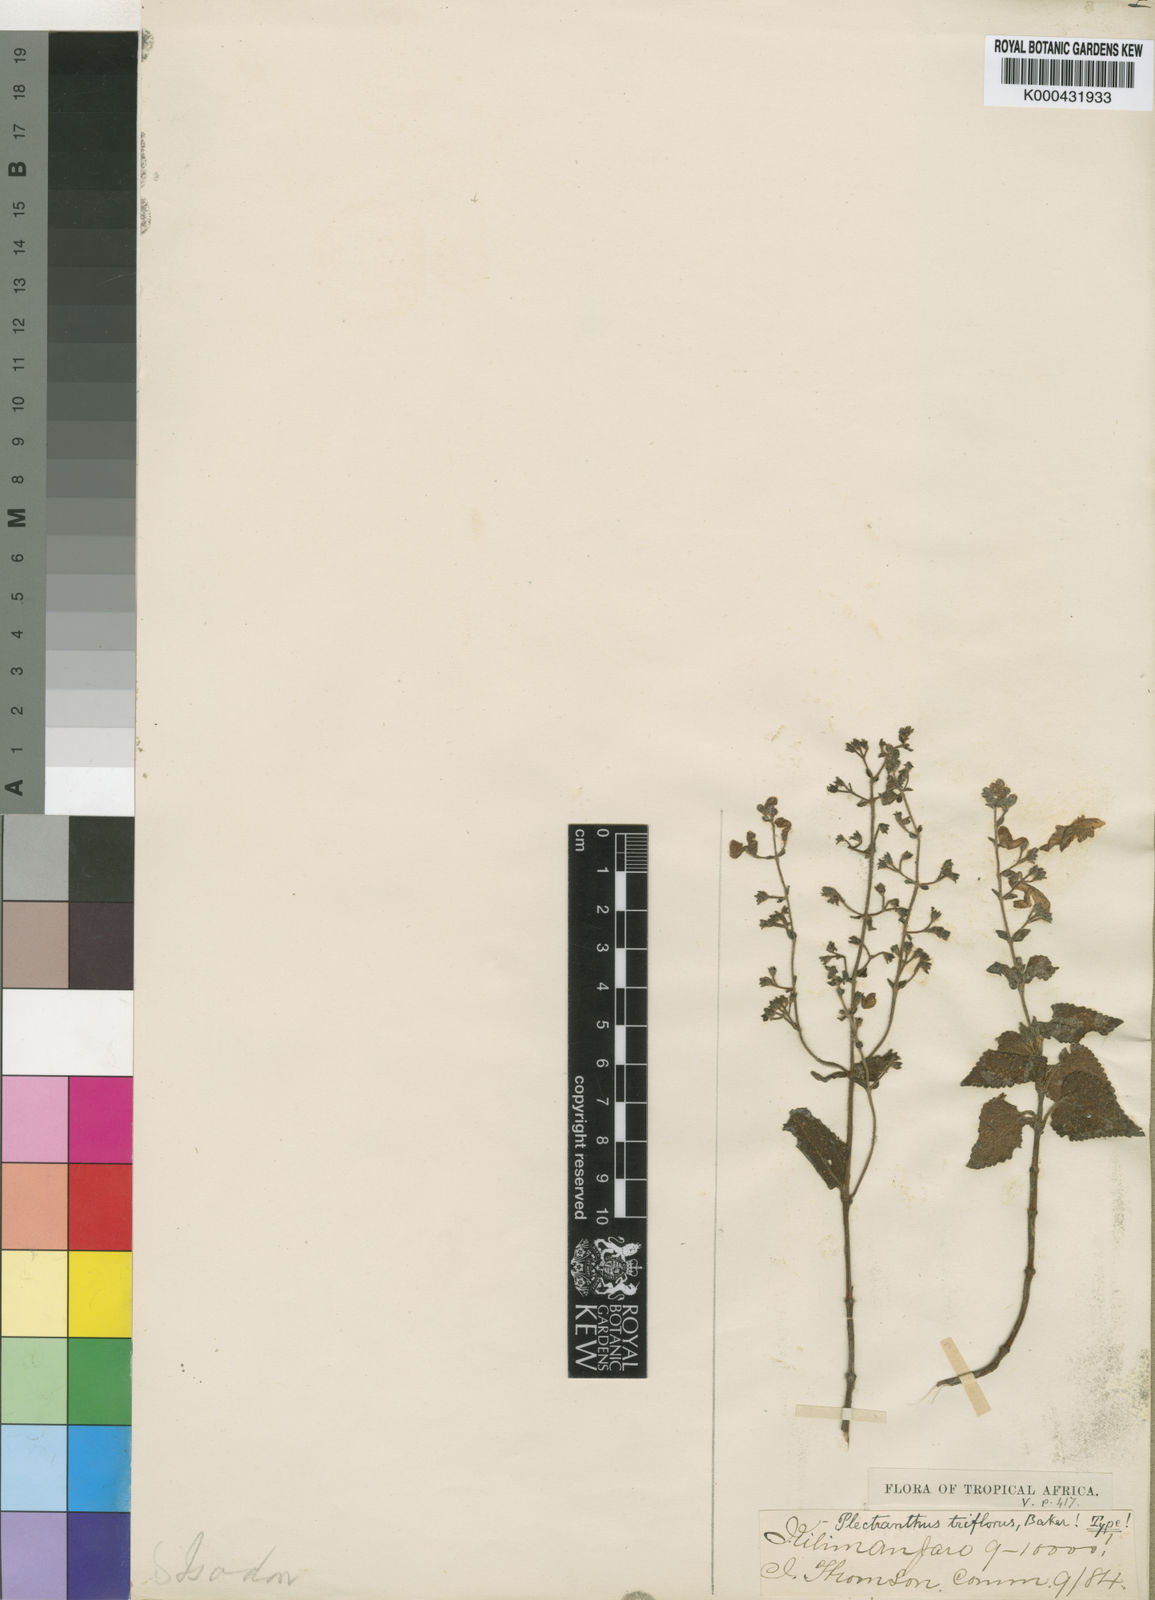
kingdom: Plantae
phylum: Tracheophyta
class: Magnoliopsida
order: Lamiales
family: Lamiaceae
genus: Equilabium
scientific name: Equilabium laxiflorum
